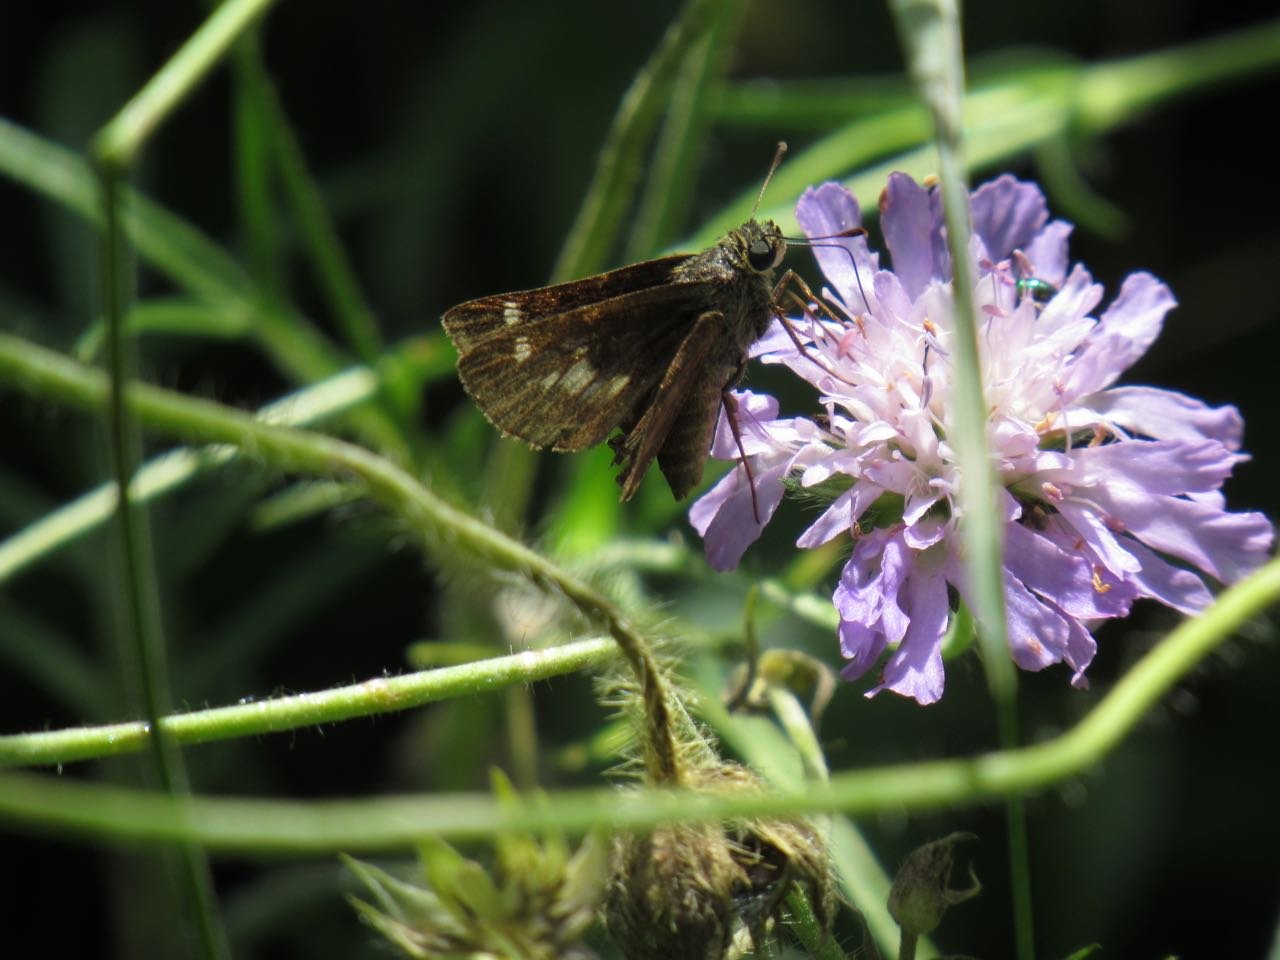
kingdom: Animalia
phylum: Arthropoda
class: Insecta
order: Lepidoptera
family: Hesperiidae
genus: Vernia
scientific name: Vernia verna
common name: Little Glassywing
